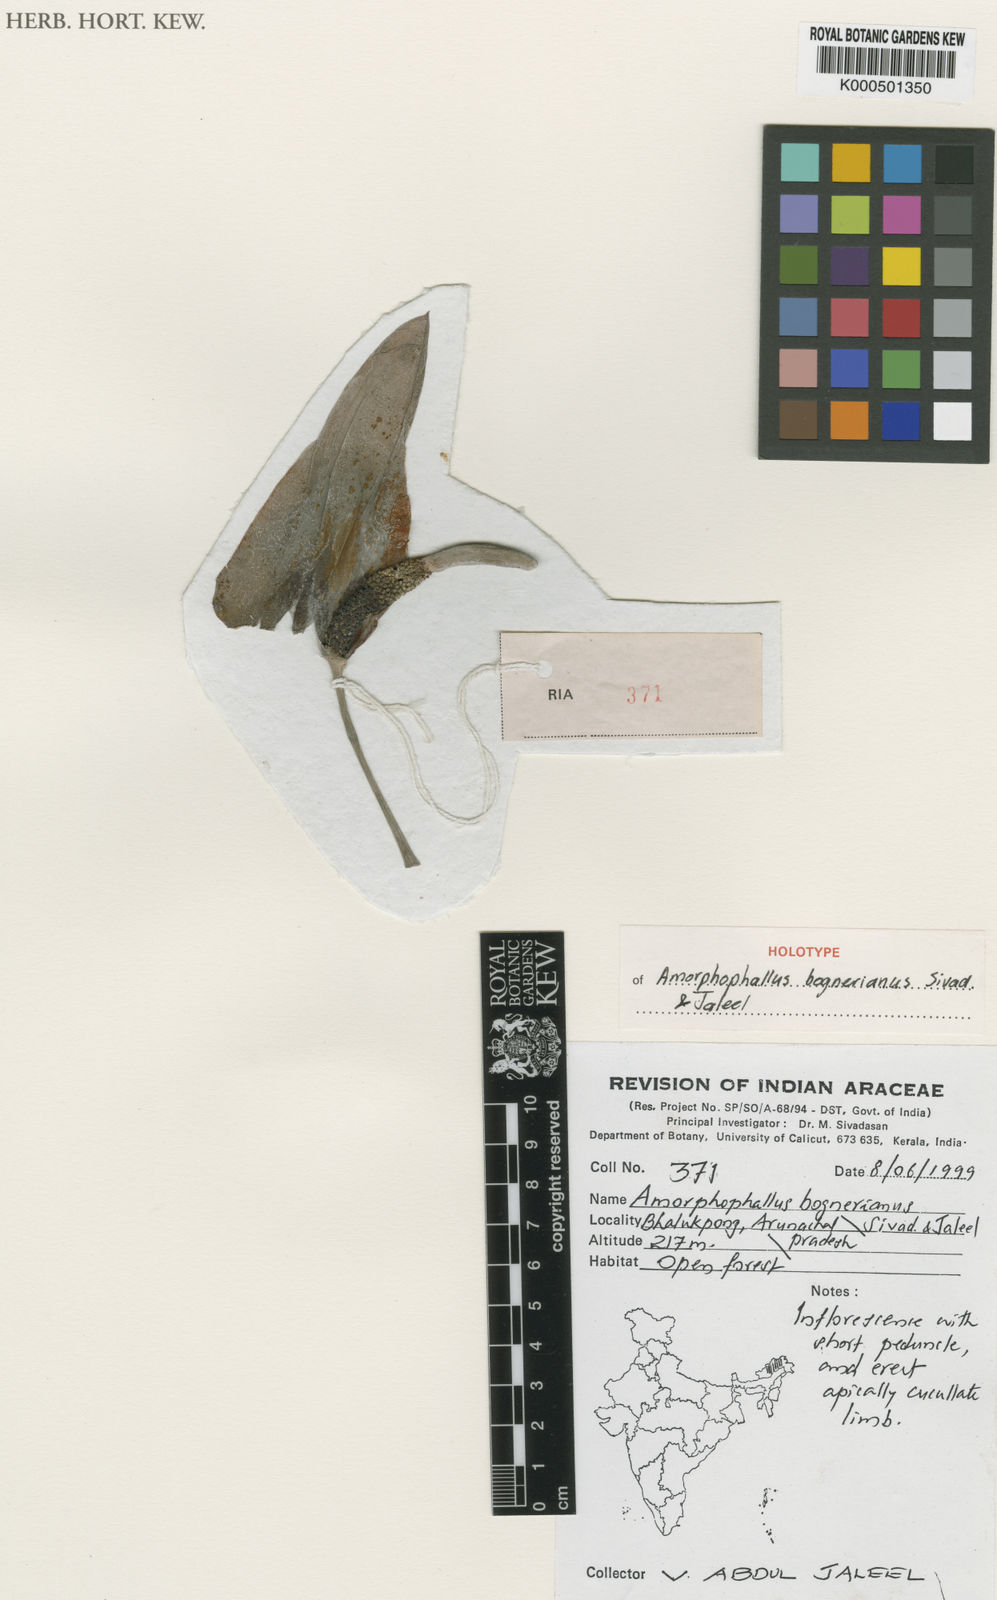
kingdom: Plantae
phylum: Tracheophyta
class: Liliopsida
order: Alismatales
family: Araceae
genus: Amorphophallus
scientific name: Amorphophallus bognerianus
